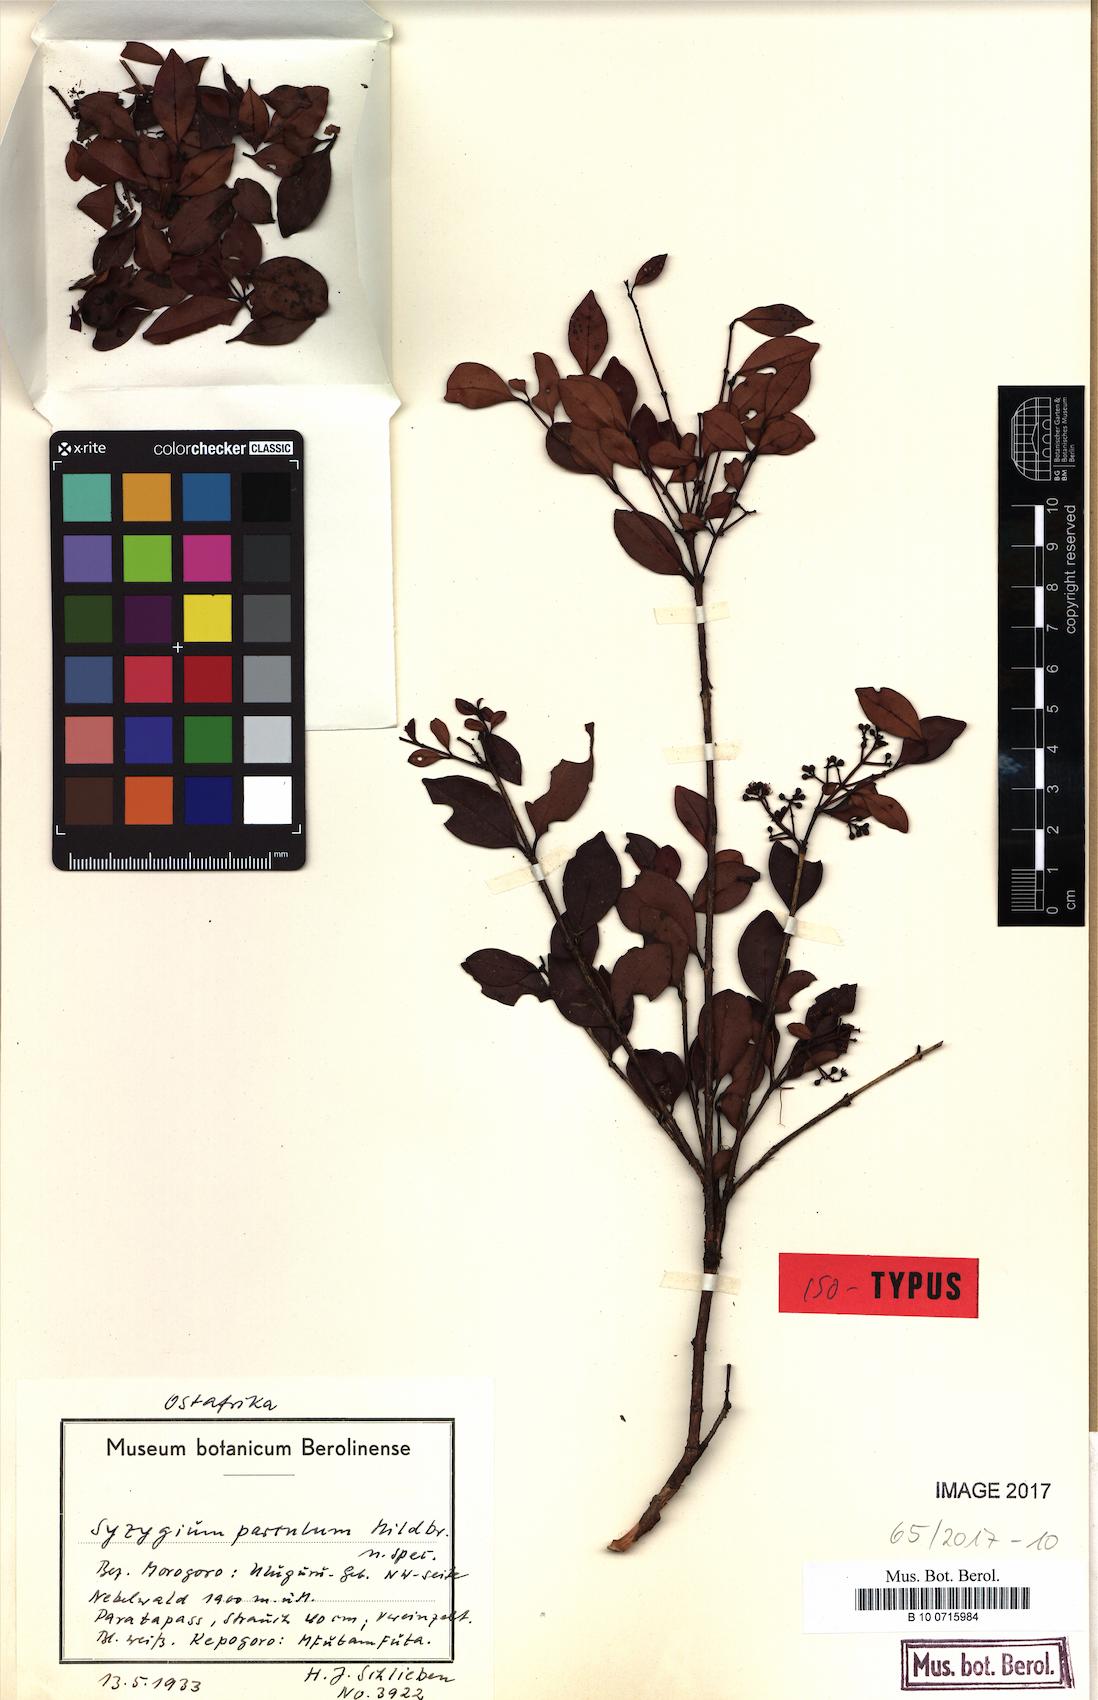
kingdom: Plantae
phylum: Tracheophyta
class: Magnoliopsida
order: Myrtales
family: Myrtaceae
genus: Syzygium
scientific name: Syzygium parvulum
